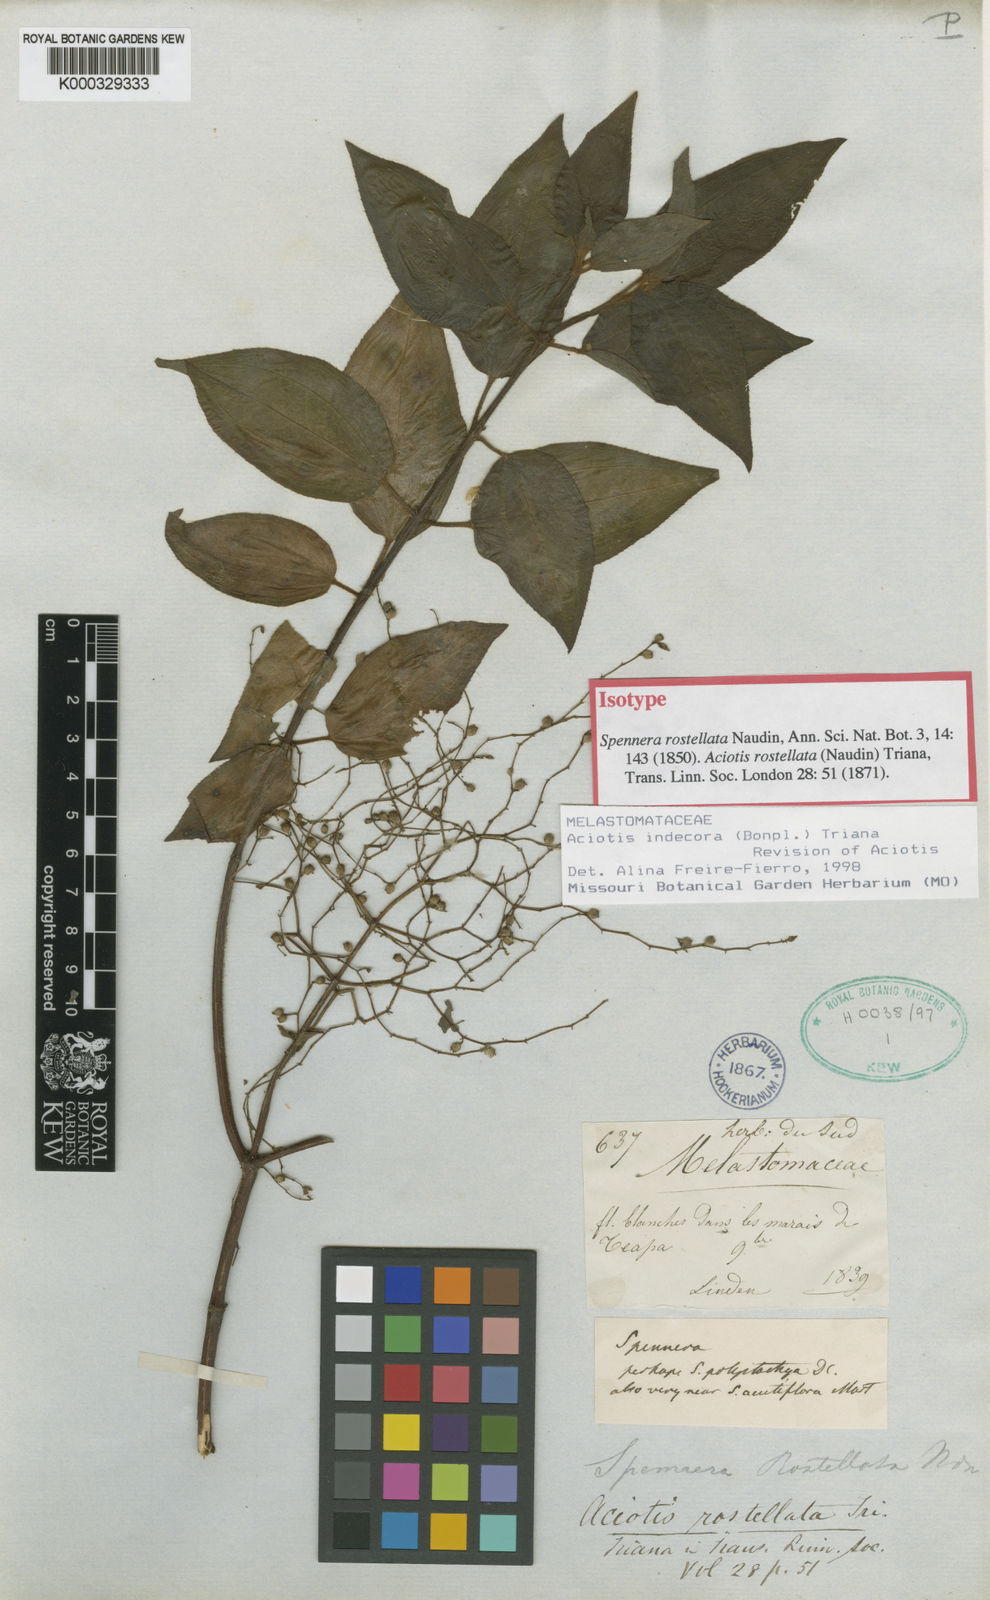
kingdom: Plantae
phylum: Tracheophyta
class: Magnoliopsida
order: Myrtales
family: Melastomataceae
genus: Aciotis
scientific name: Aciotis indecora
